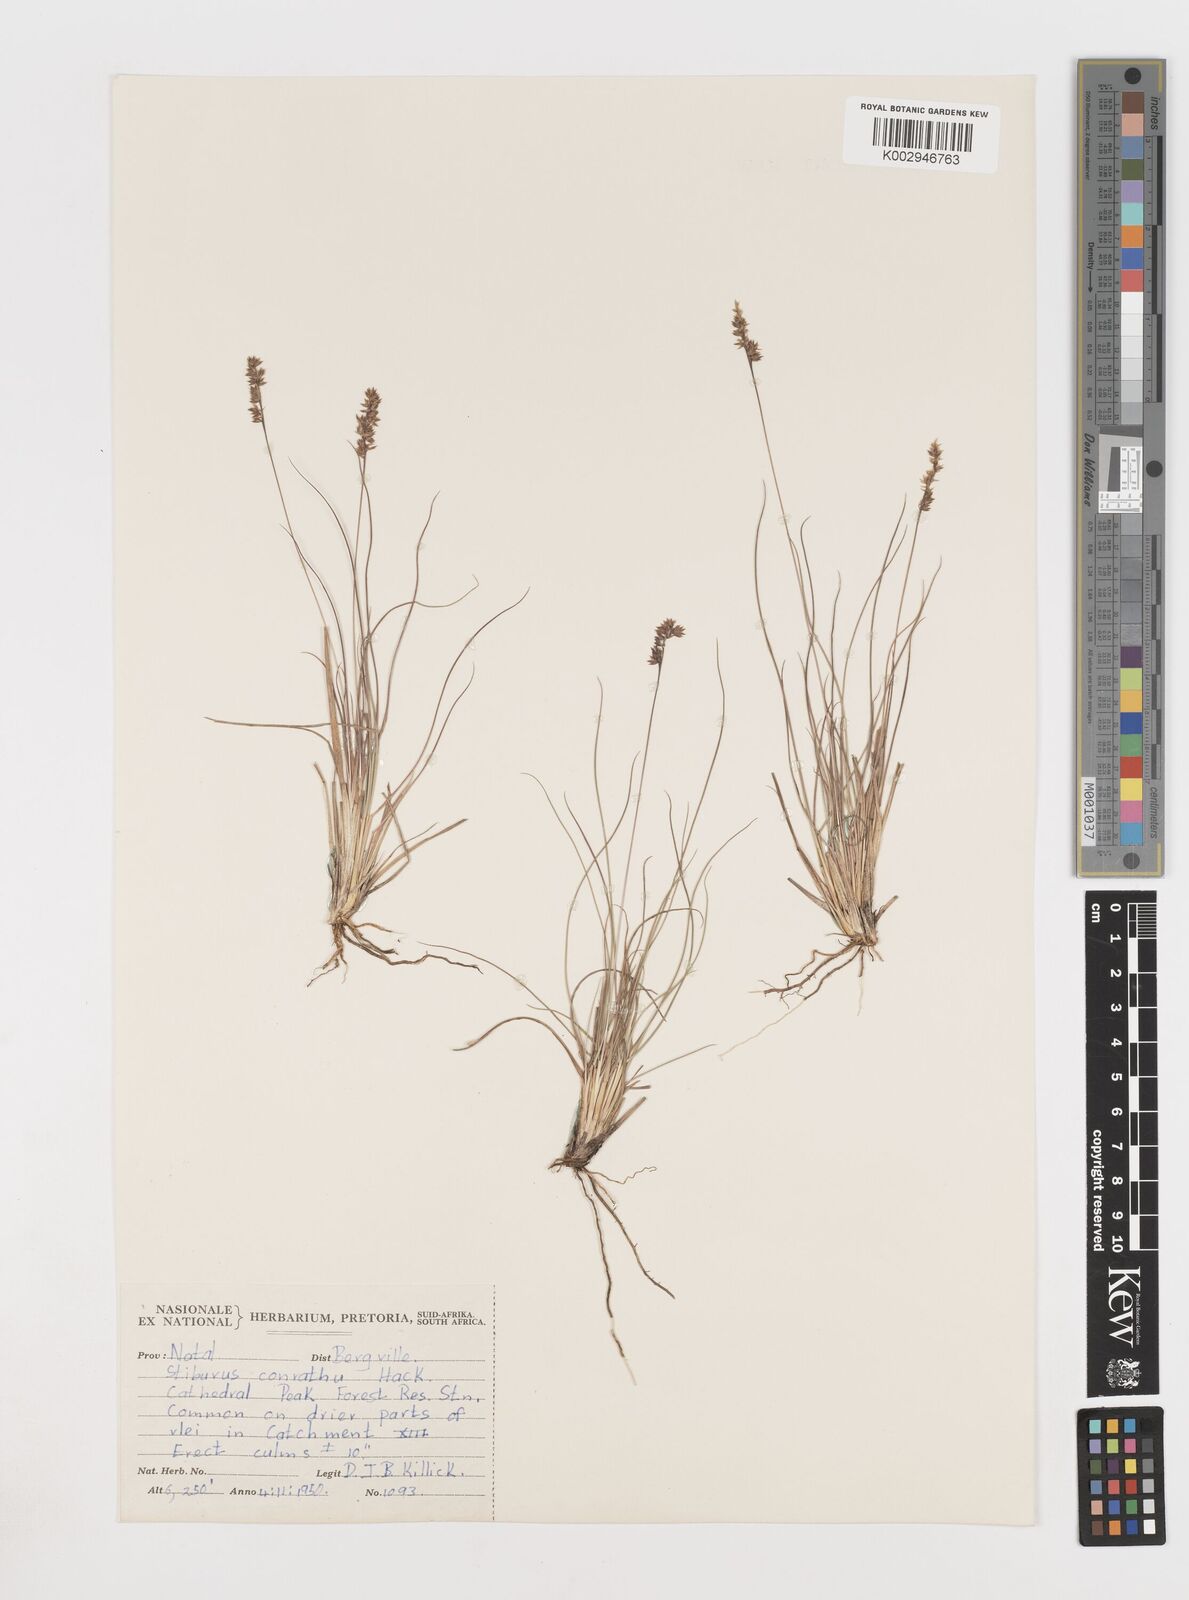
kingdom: Plantae
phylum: Tracheophyta
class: Liliopsida
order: Poales
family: Poaceae
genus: Stiburus
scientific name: Stiburus conrathii
